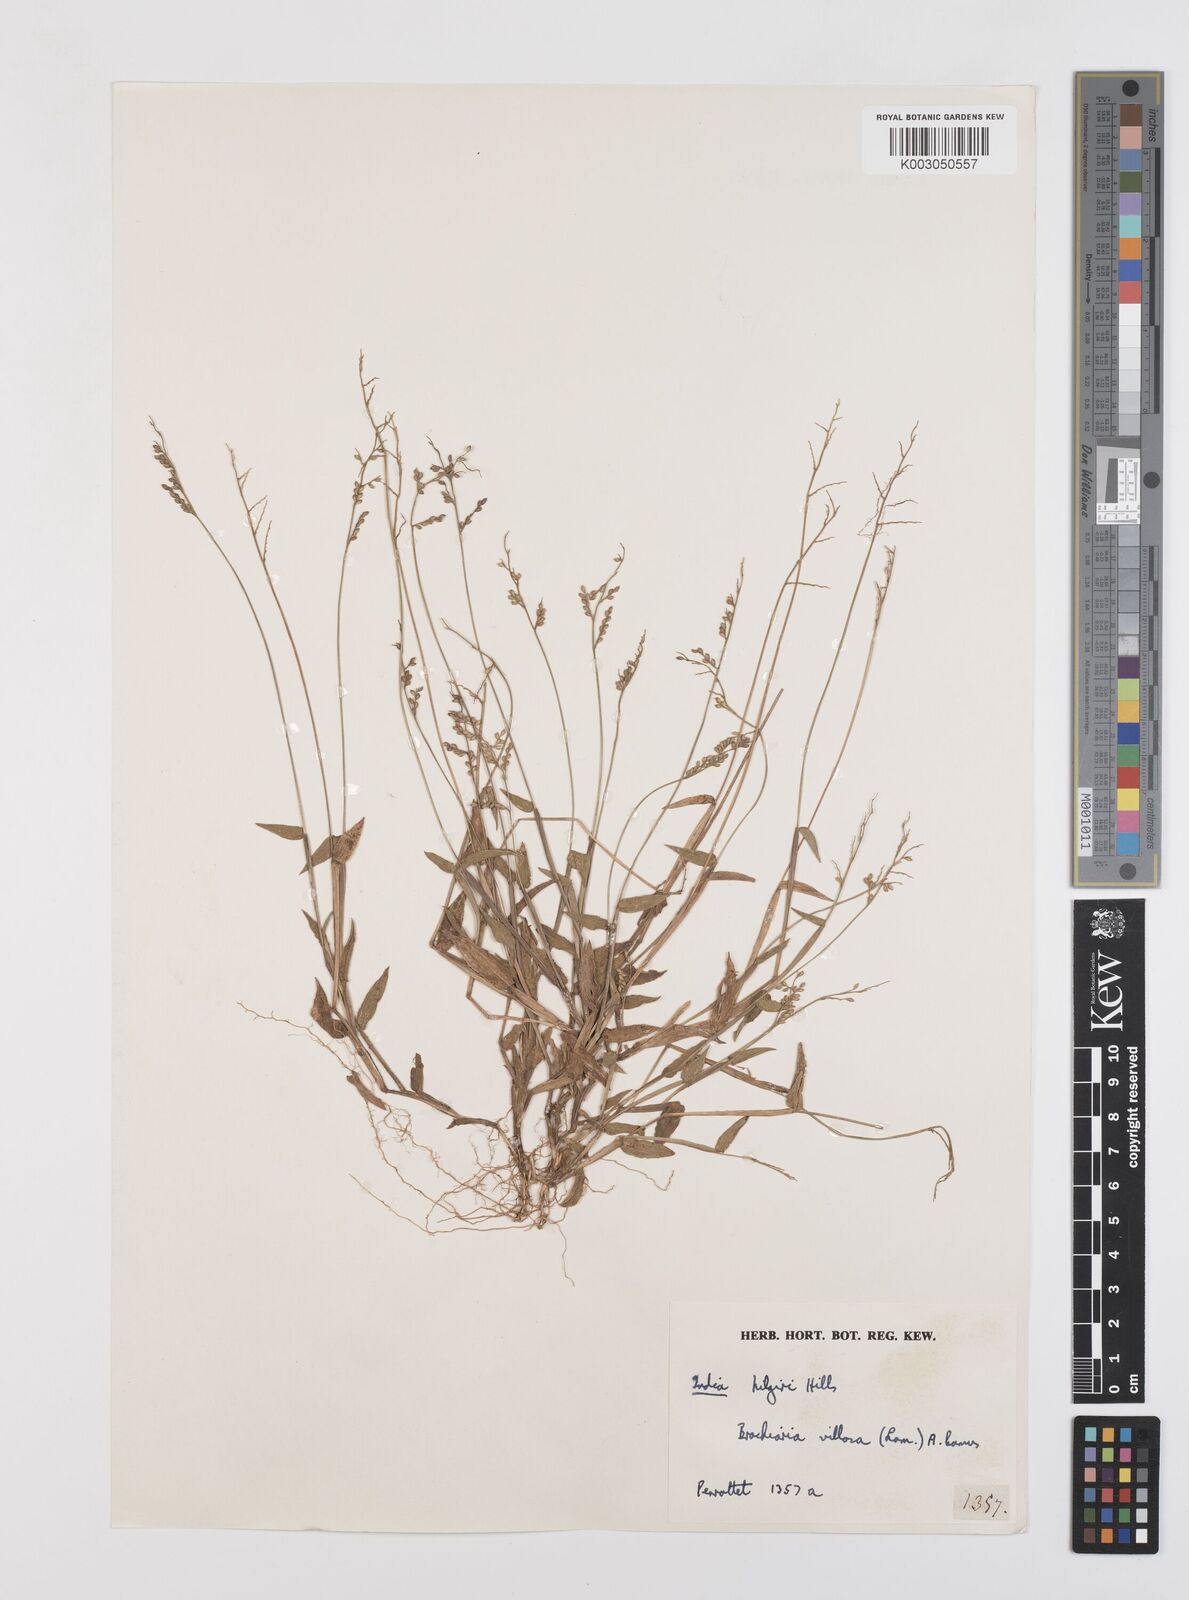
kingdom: Plantae
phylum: Tracheophyta
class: Liliopsida
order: Poales
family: Poaceae
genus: Urochloa
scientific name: Urochloa villosa
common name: Hairy signalgrass
